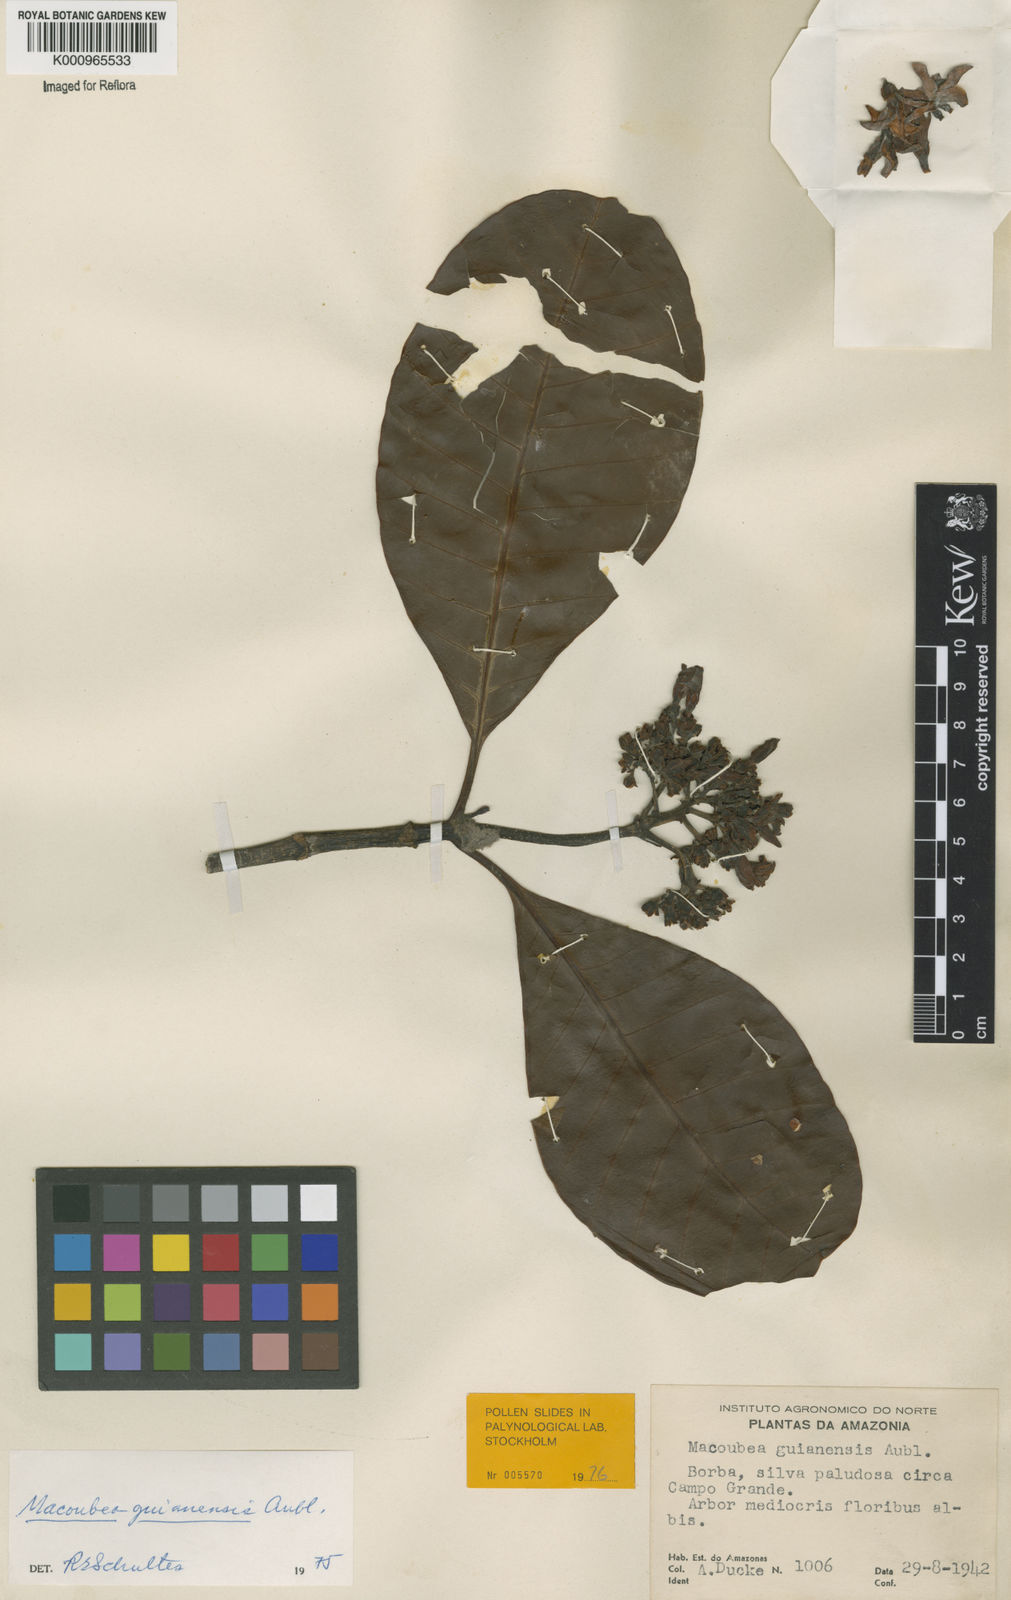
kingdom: Plantae
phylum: Tracheophyta
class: Magnoliopsida
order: Gentianales
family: Apocynaceae
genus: Macoubea
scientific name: Macoubea guianensis
